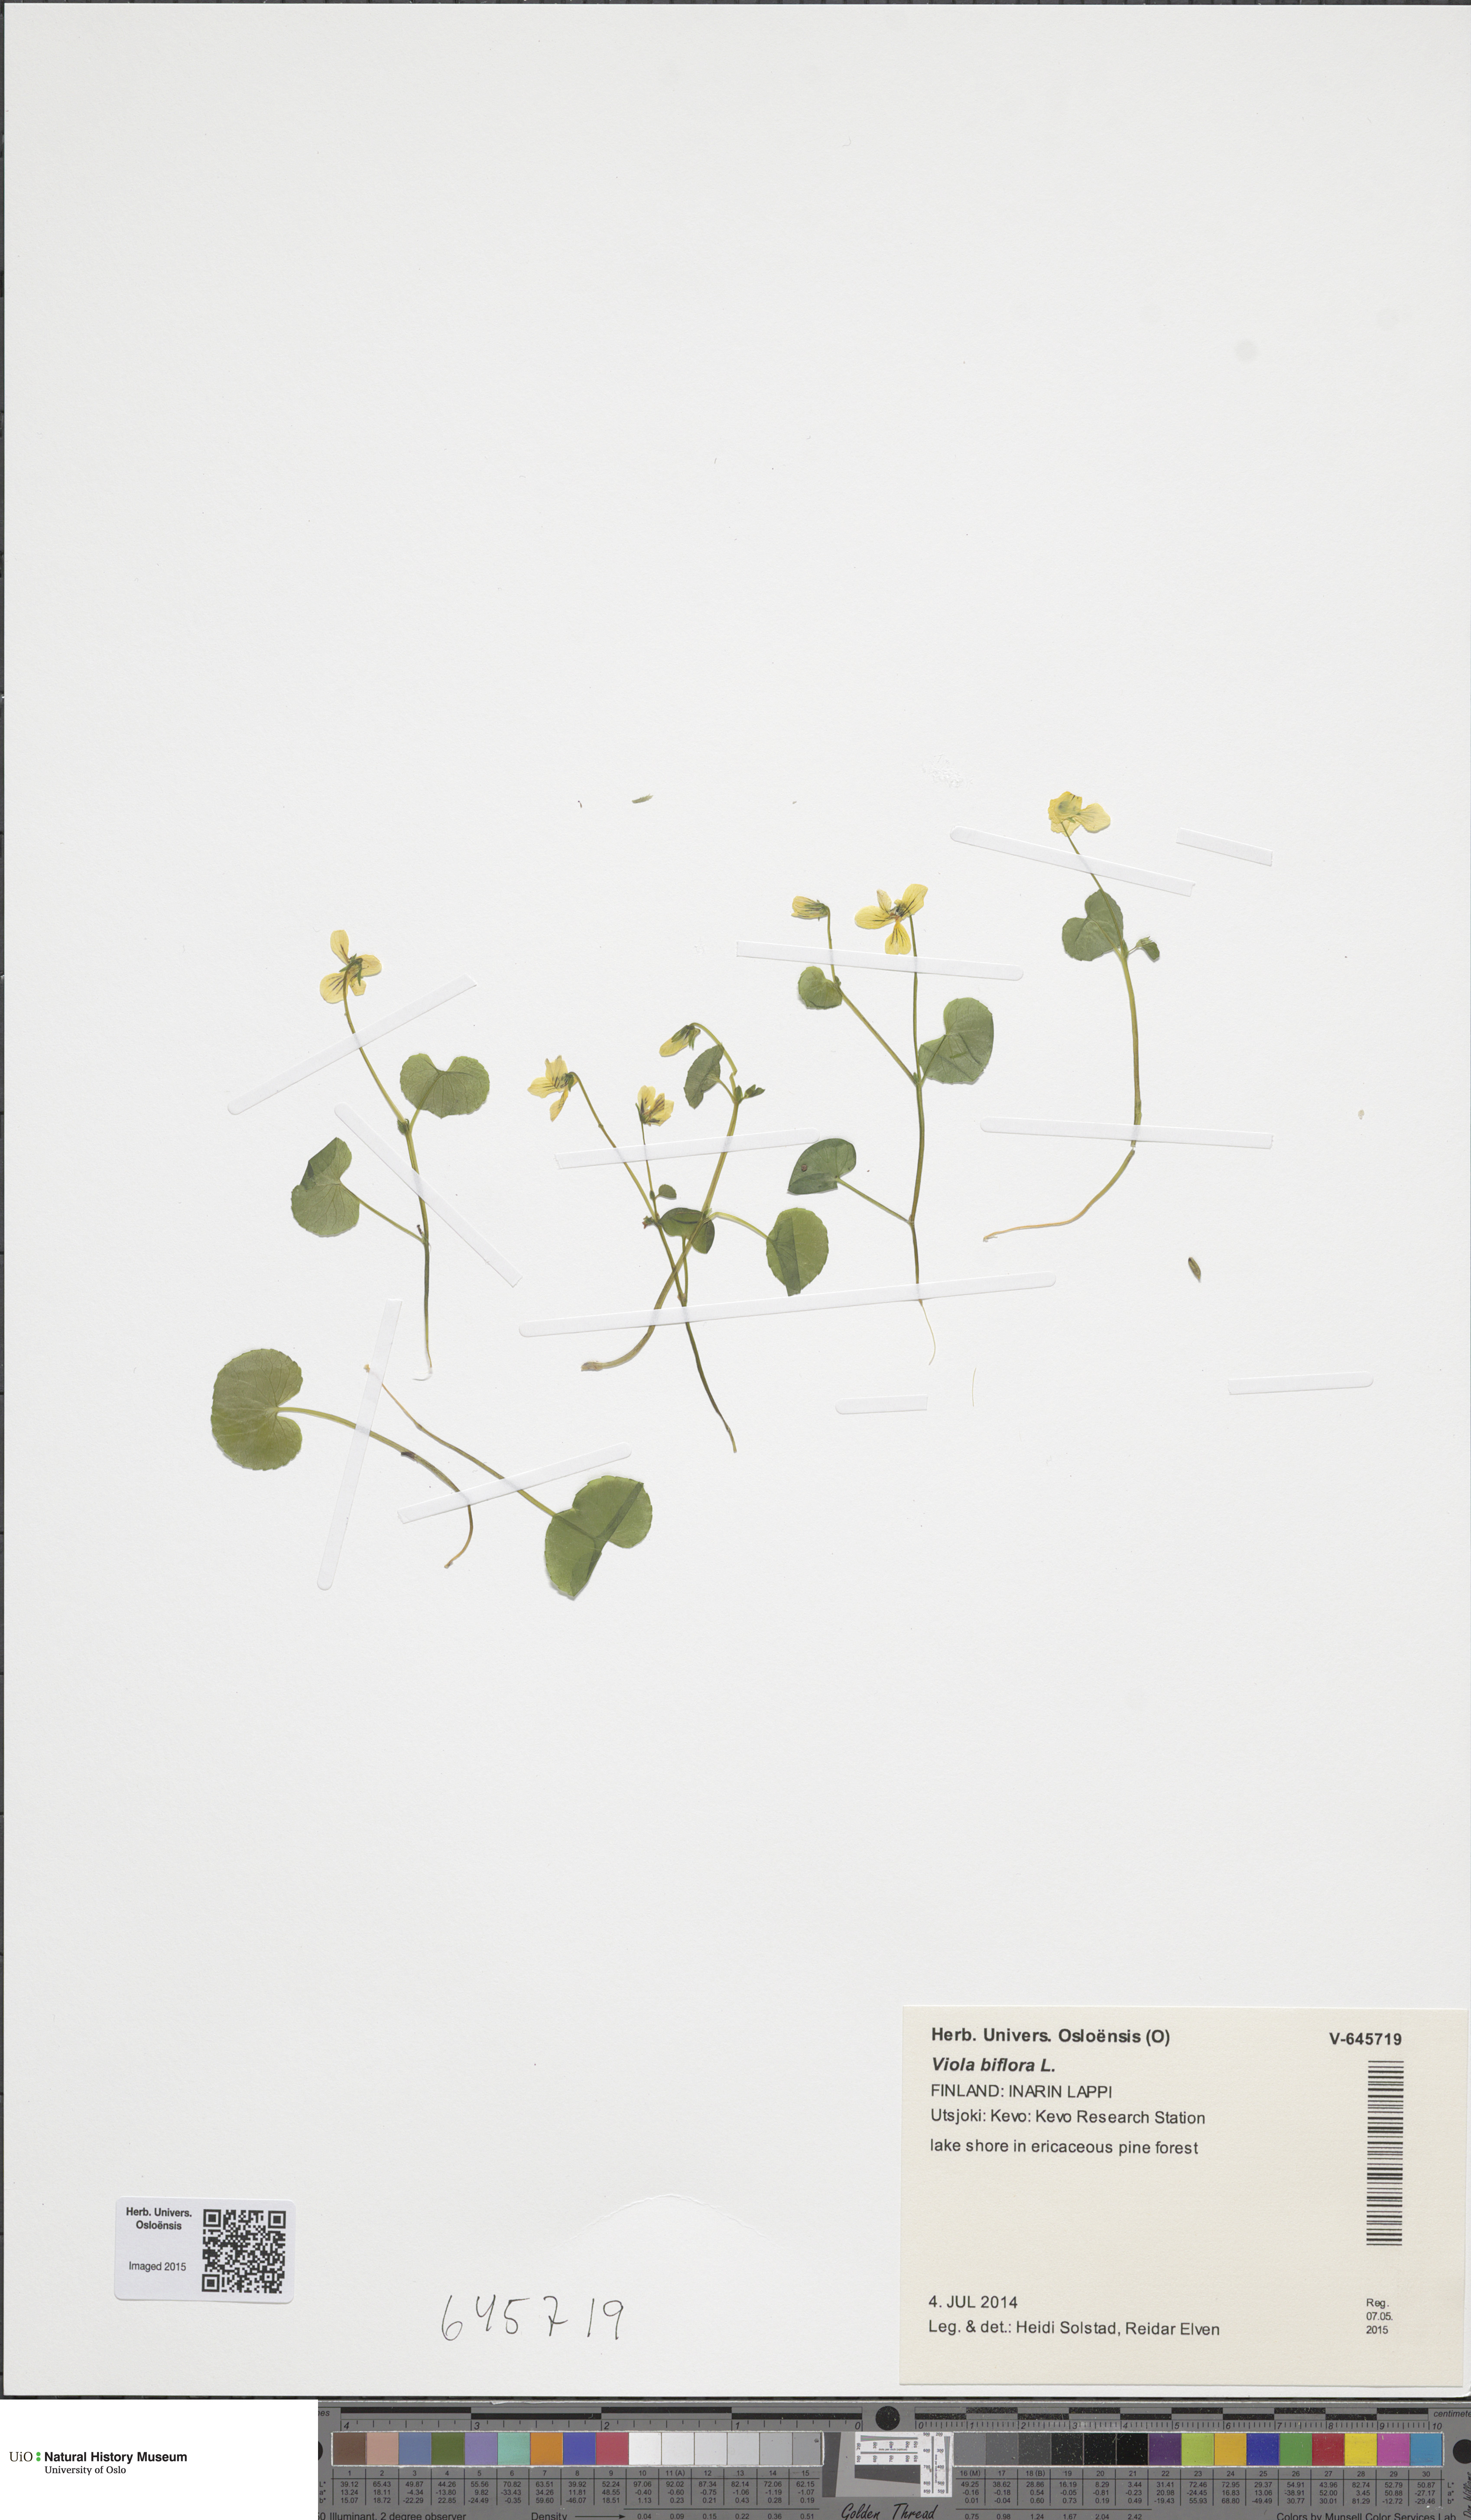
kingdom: Plantae
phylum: Tracheophyta
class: Magnoliopsida
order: Malpighiales
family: Violaceae
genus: Viola
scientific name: Viola biflora
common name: Alpine yellow violet
